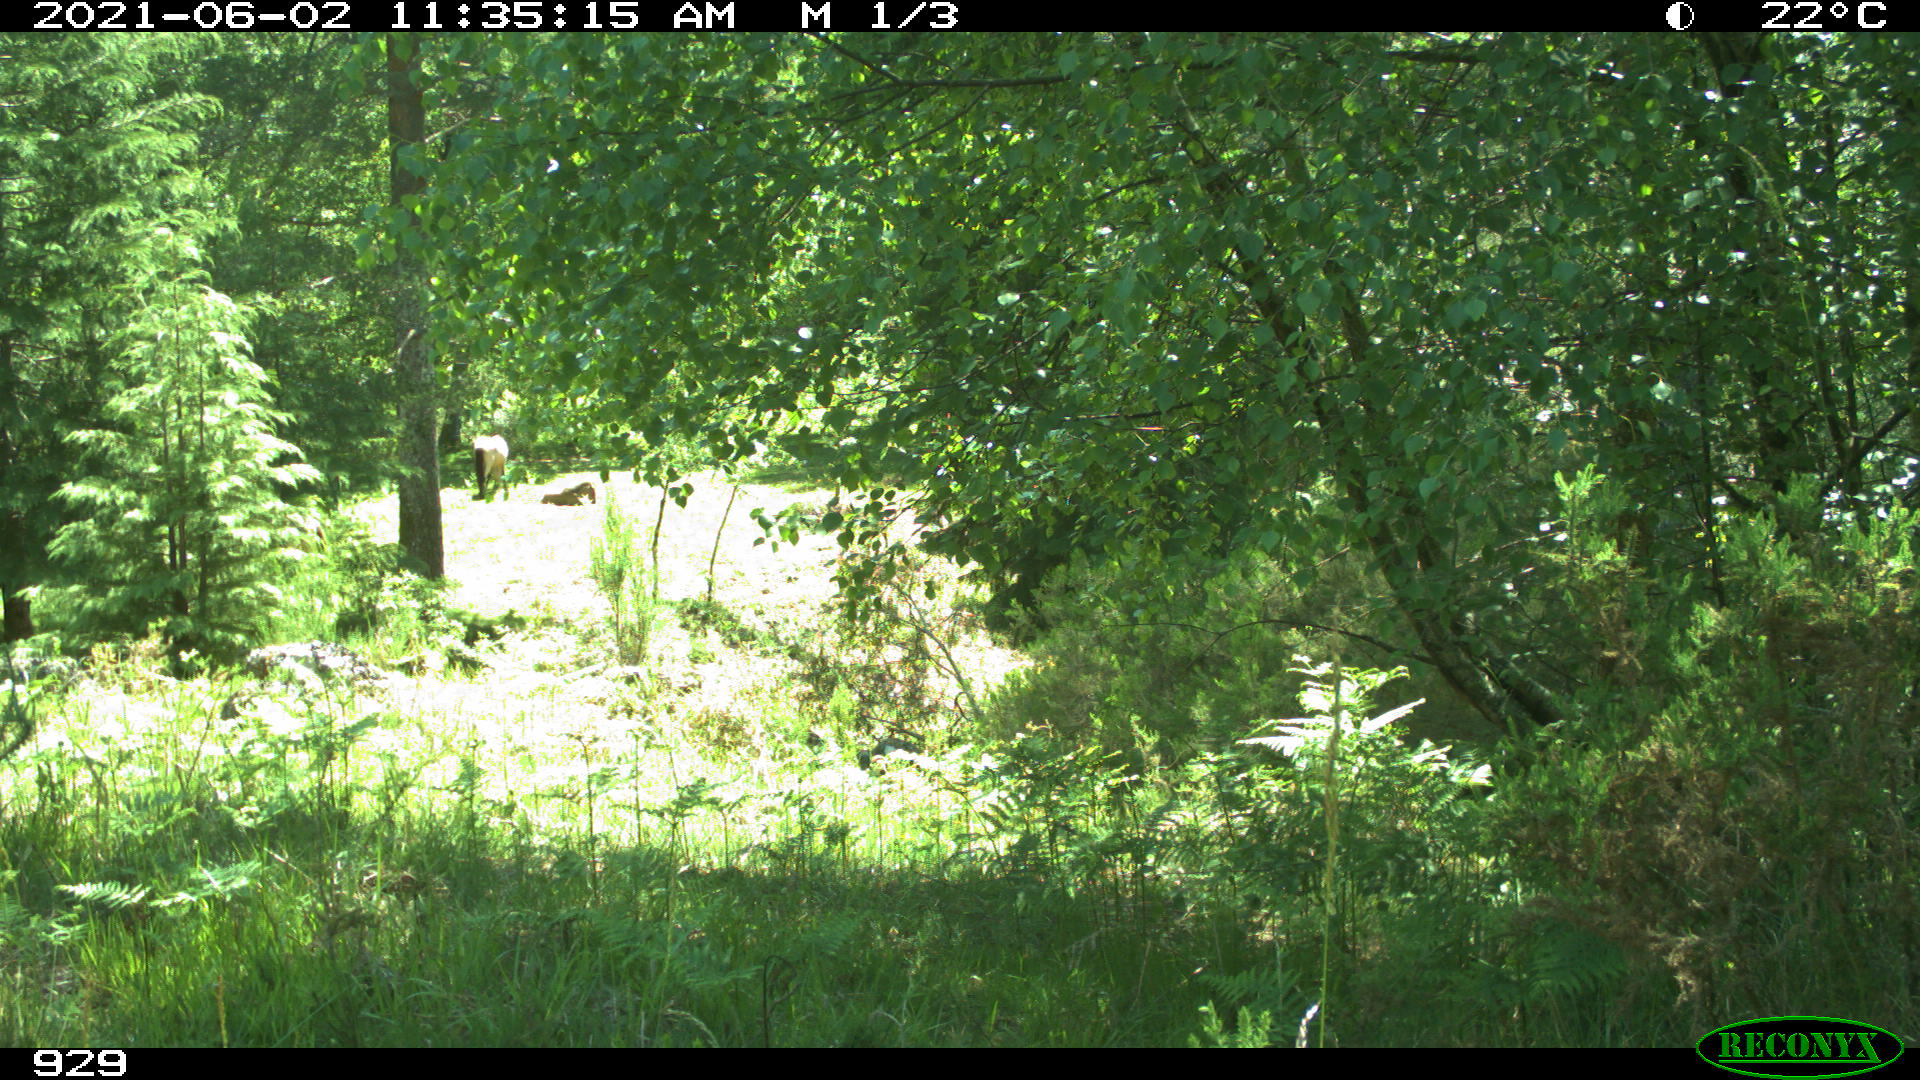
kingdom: Animalia
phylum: Chordata
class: Mammalia
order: Perissodactyla
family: Equidae
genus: Equus
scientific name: Equus caballus
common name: Horse
